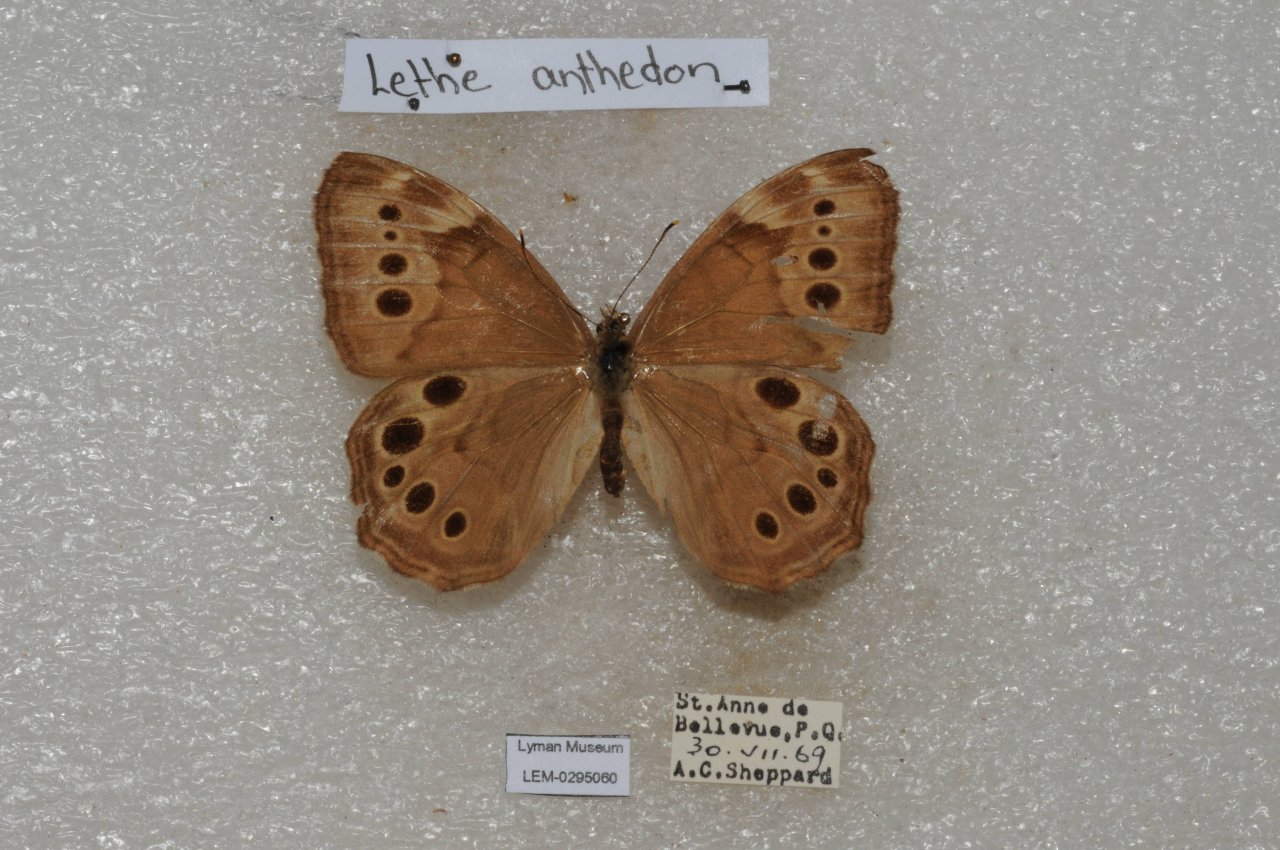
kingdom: Animalia
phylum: Arthropoda
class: Insecta
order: Lepidoptera
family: Nymphalidae
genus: Lethe
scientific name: Lethe anthedon
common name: Northern Pearly-Eye
